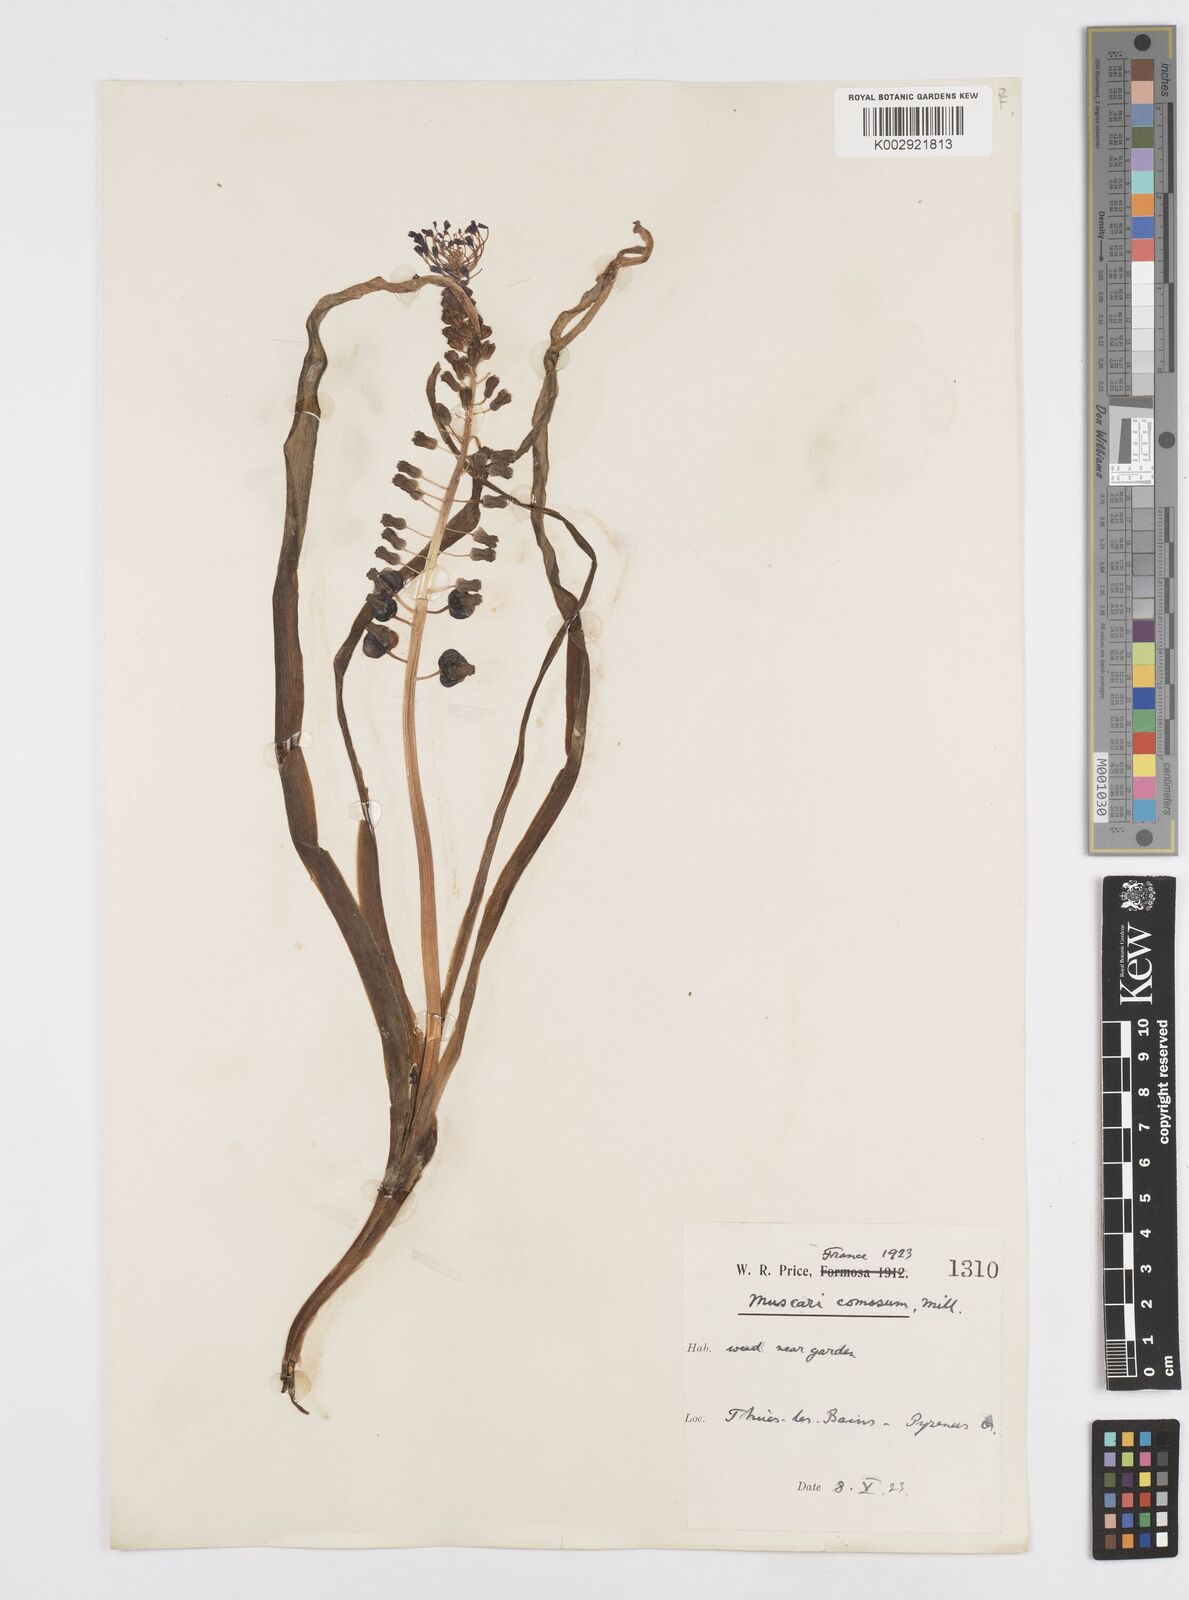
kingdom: Plantae
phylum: Tracheophyta
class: Liliopsida
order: Asparagales
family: Asparagaceae
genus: Muscari
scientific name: Muscari comosum
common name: Tassel hyacinth
